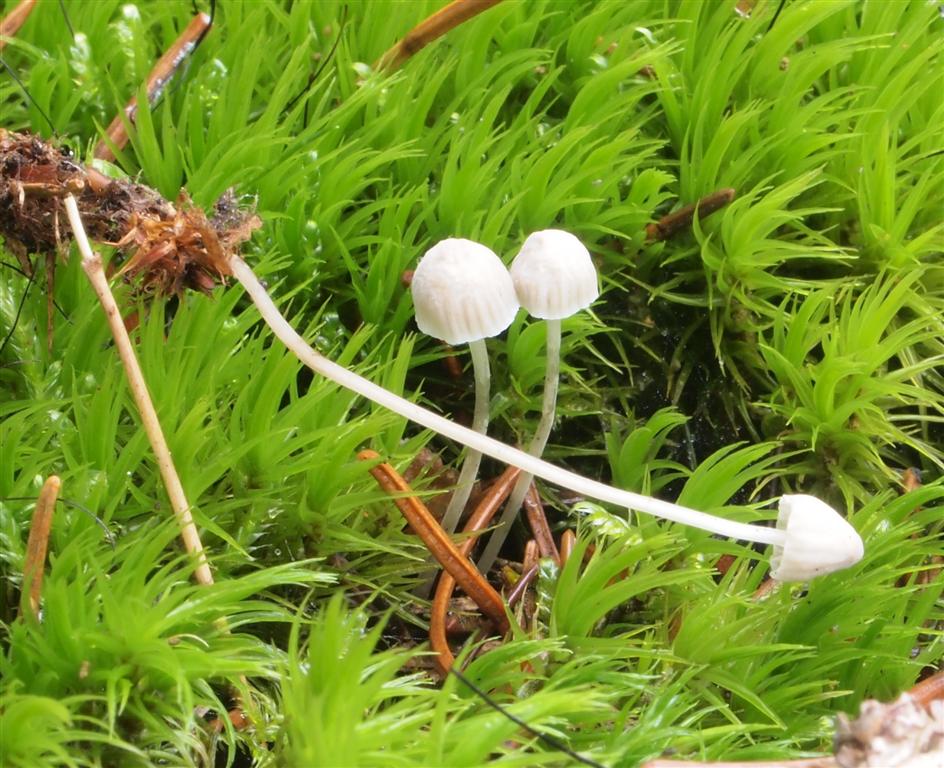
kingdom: Fungi
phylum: Basidiomycota
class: Agaricomycetes
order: Agaricales
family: Mycenaceae
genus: Mycena
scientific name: Mycena cinerella
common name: mel-huesvamp
